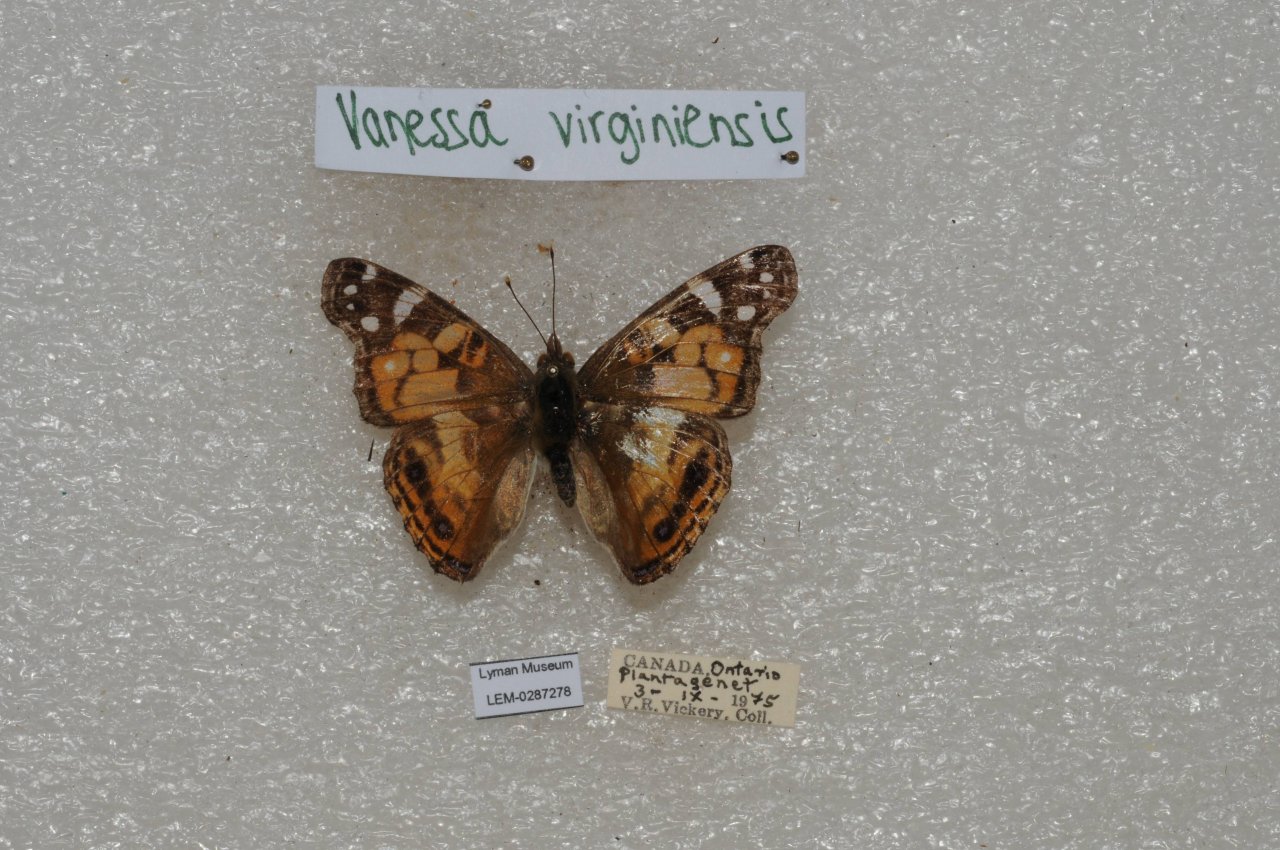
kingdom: Animalia
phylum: Arthropoda
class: Insecta
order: Lepidoptera
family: Nymphalidae
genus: Vanessa
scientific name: Vanessa virginiensis
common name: American Lady
